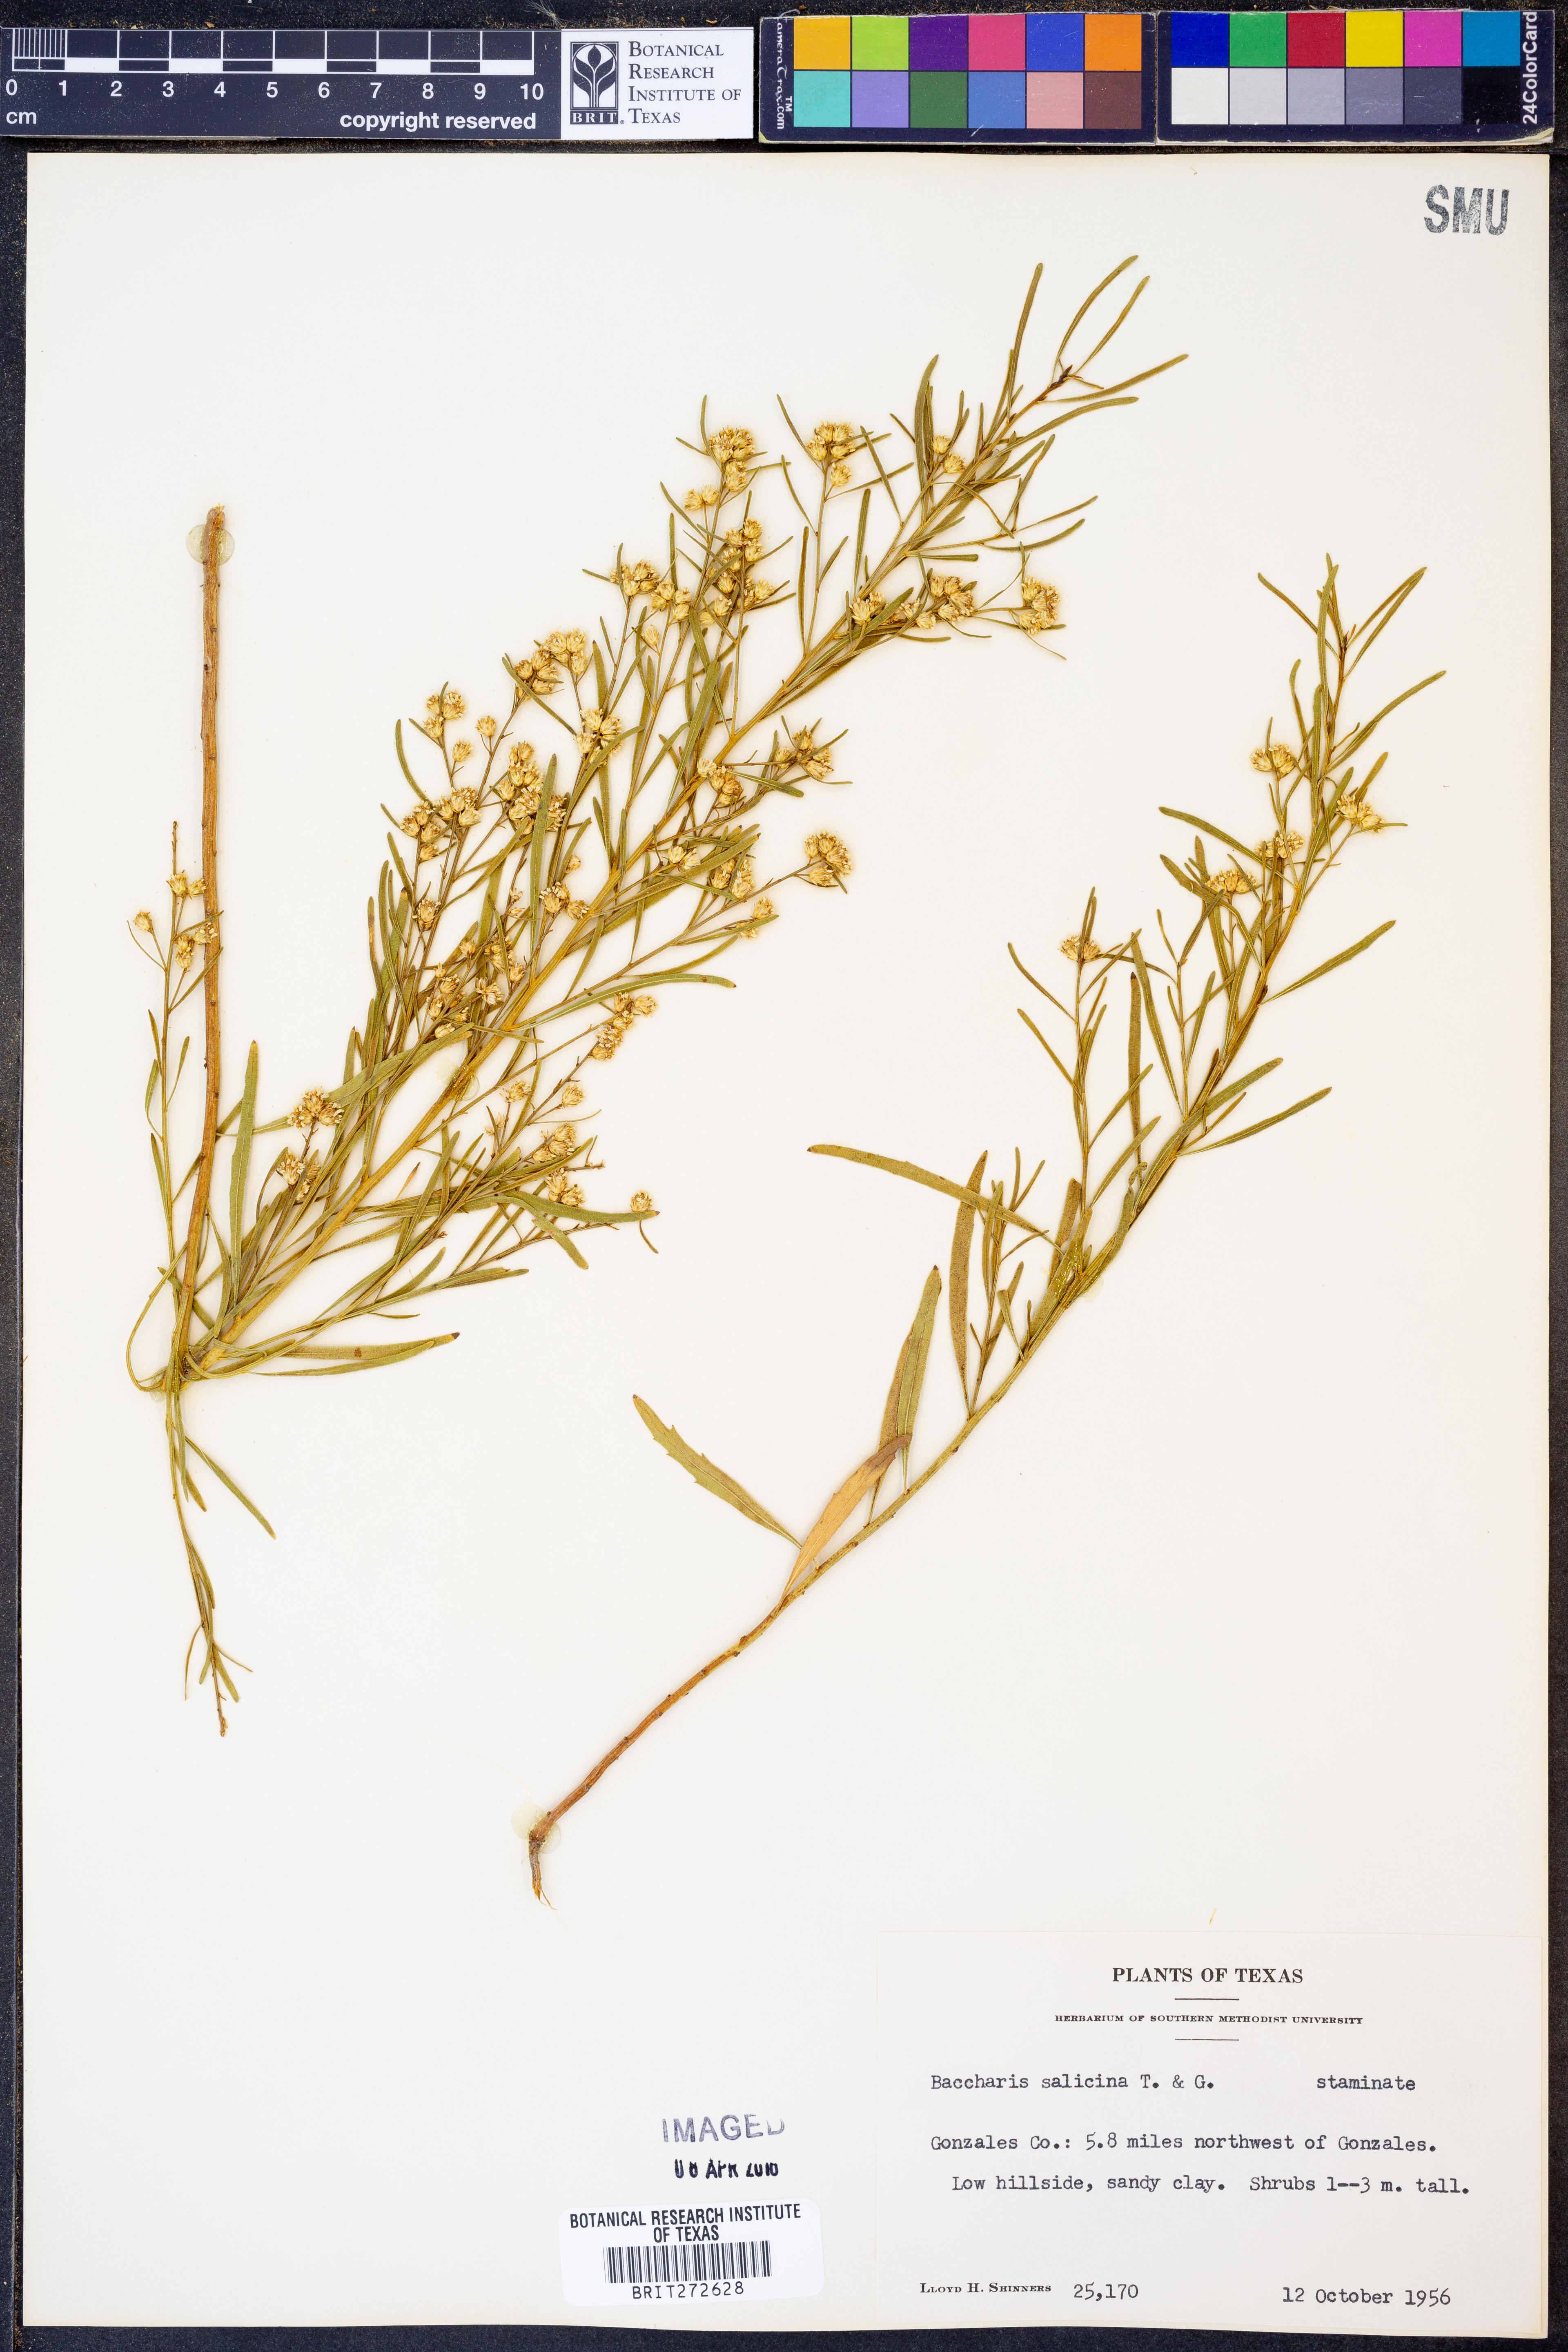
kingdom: Plantae
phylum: Tracheophyta
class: Magnoliopsida
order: Asterales
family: Asteraceae
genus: Baccharis
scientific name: Baccharis salicina
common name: Willow baccharis
